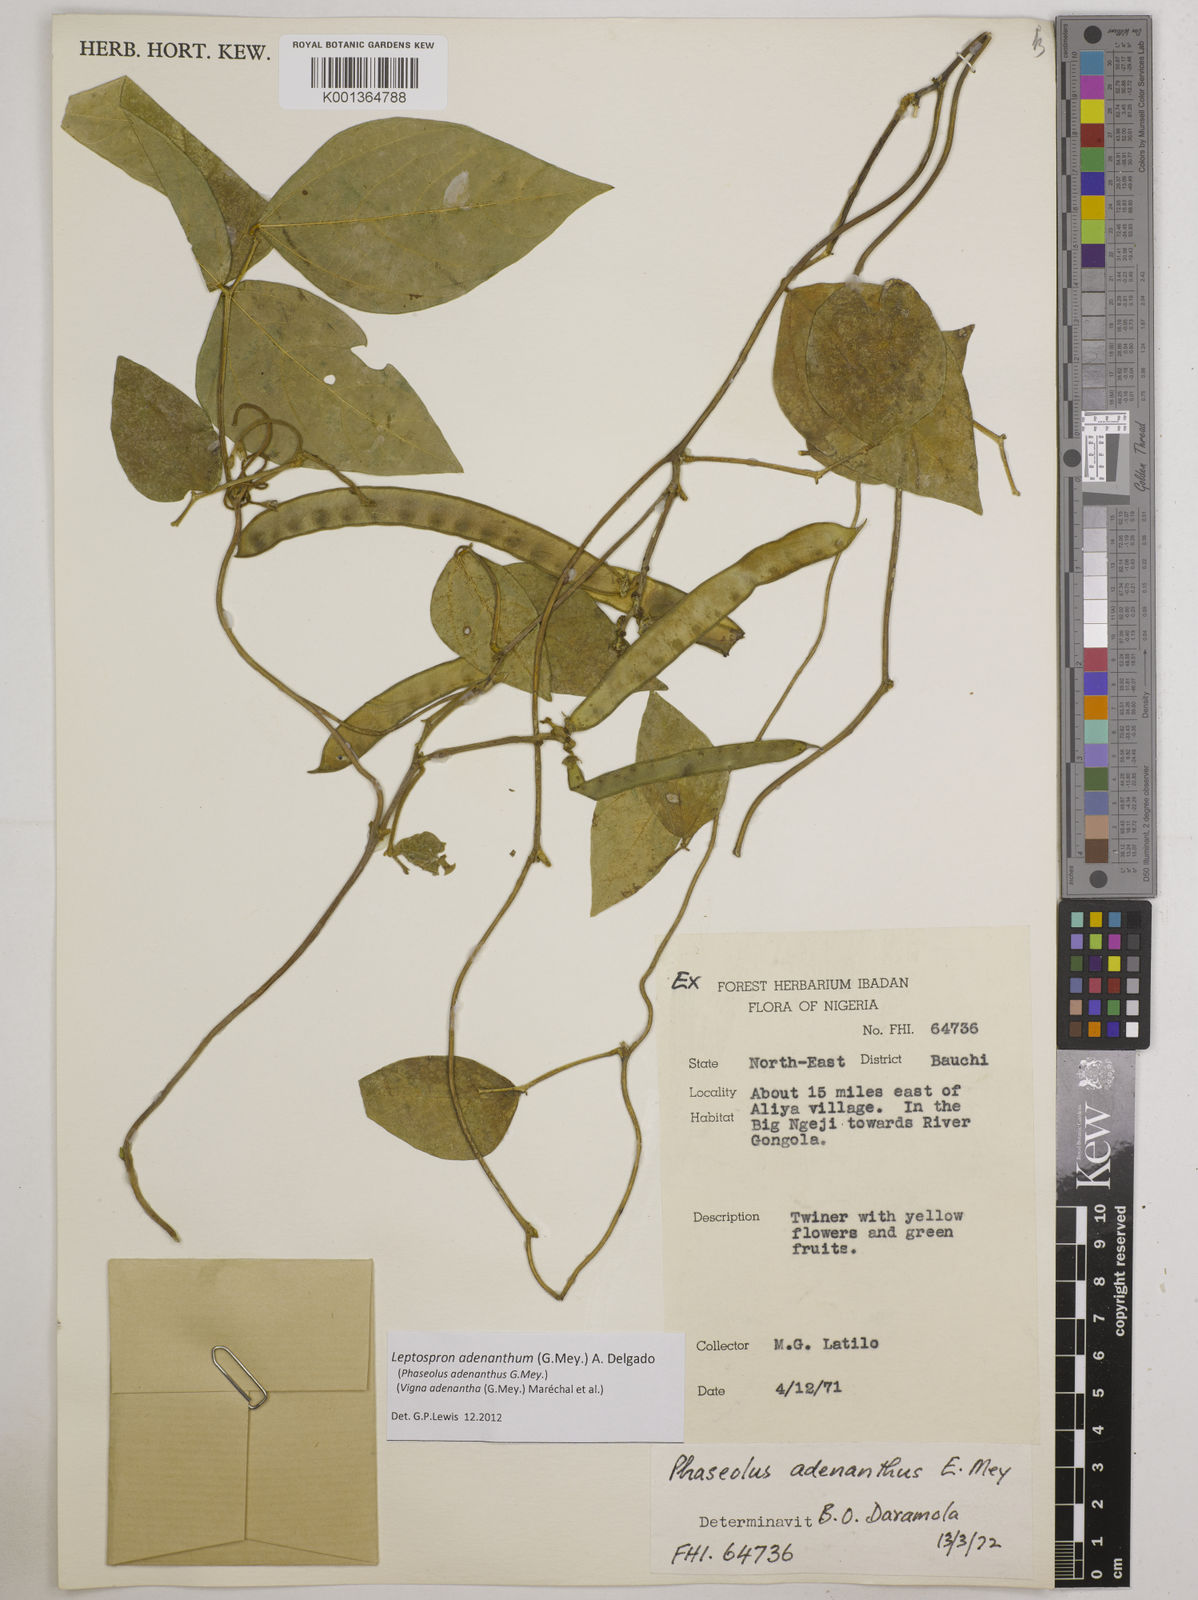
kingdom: Plantae
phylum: Tracheophyta
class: Magnoliopsida
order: Fabales
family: Fabaceae
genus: Leptospron
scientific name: Leptospron adenanthum
